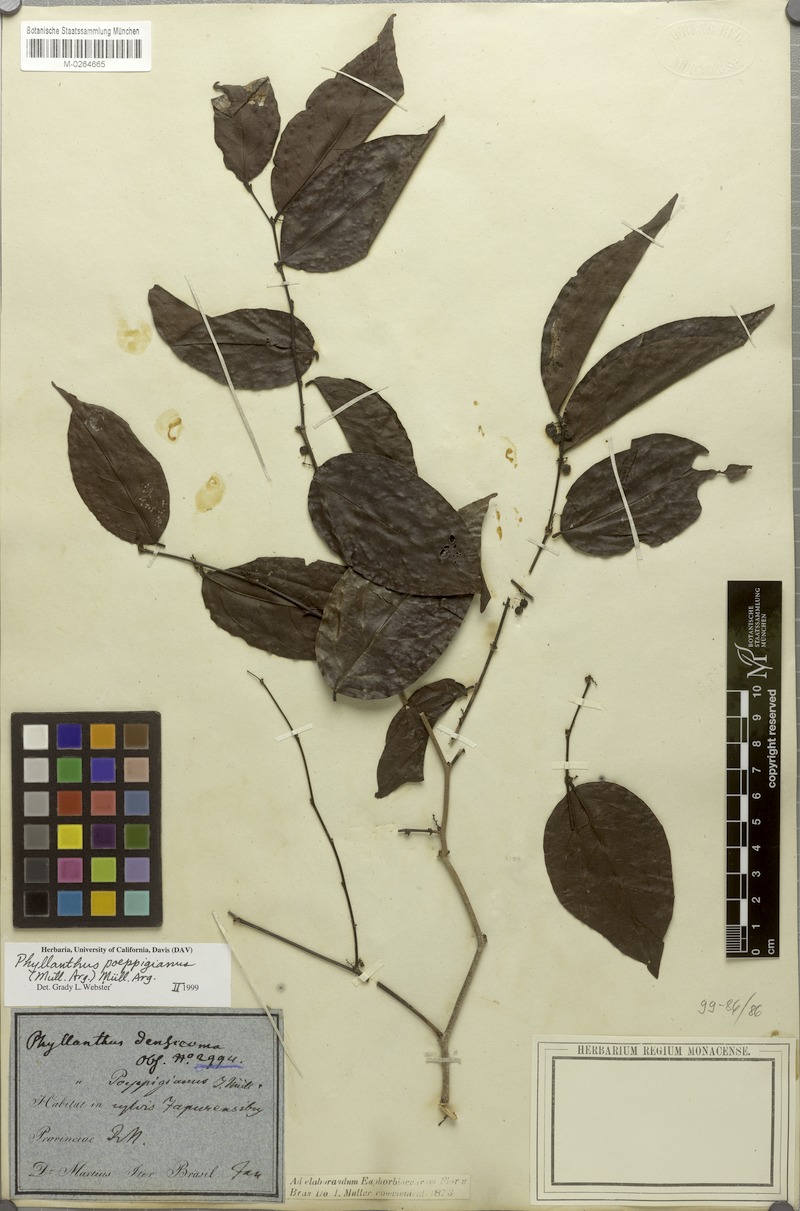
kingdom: Plantae
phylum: Tracheophyta
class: Magnoliopsida
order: Malpighiales
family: Phyllanthaceae
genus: Phyllanthus
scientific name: Phyllanthus poeppigianus
